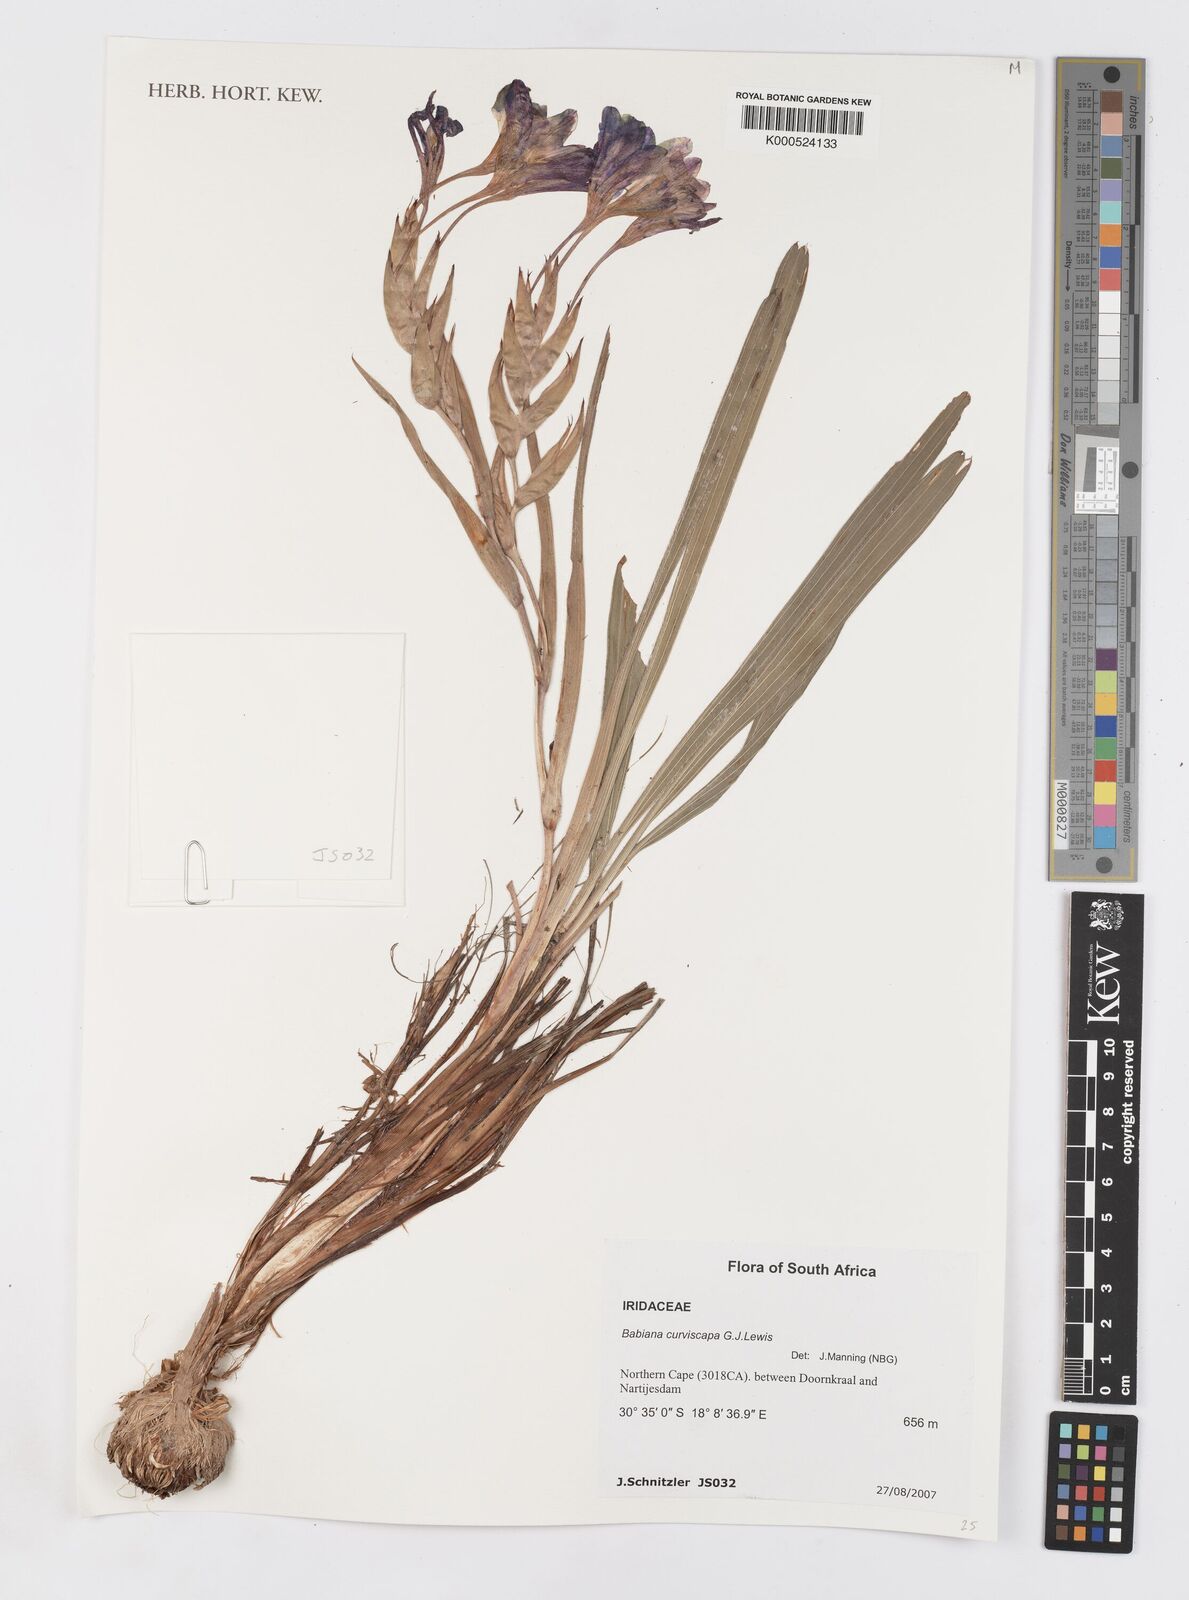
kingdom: Plantae
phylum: Tracheophyta
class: Liliopsida
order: Asparagales
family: Iridaceae
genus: Babiana
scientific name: Babiana curviscapa
